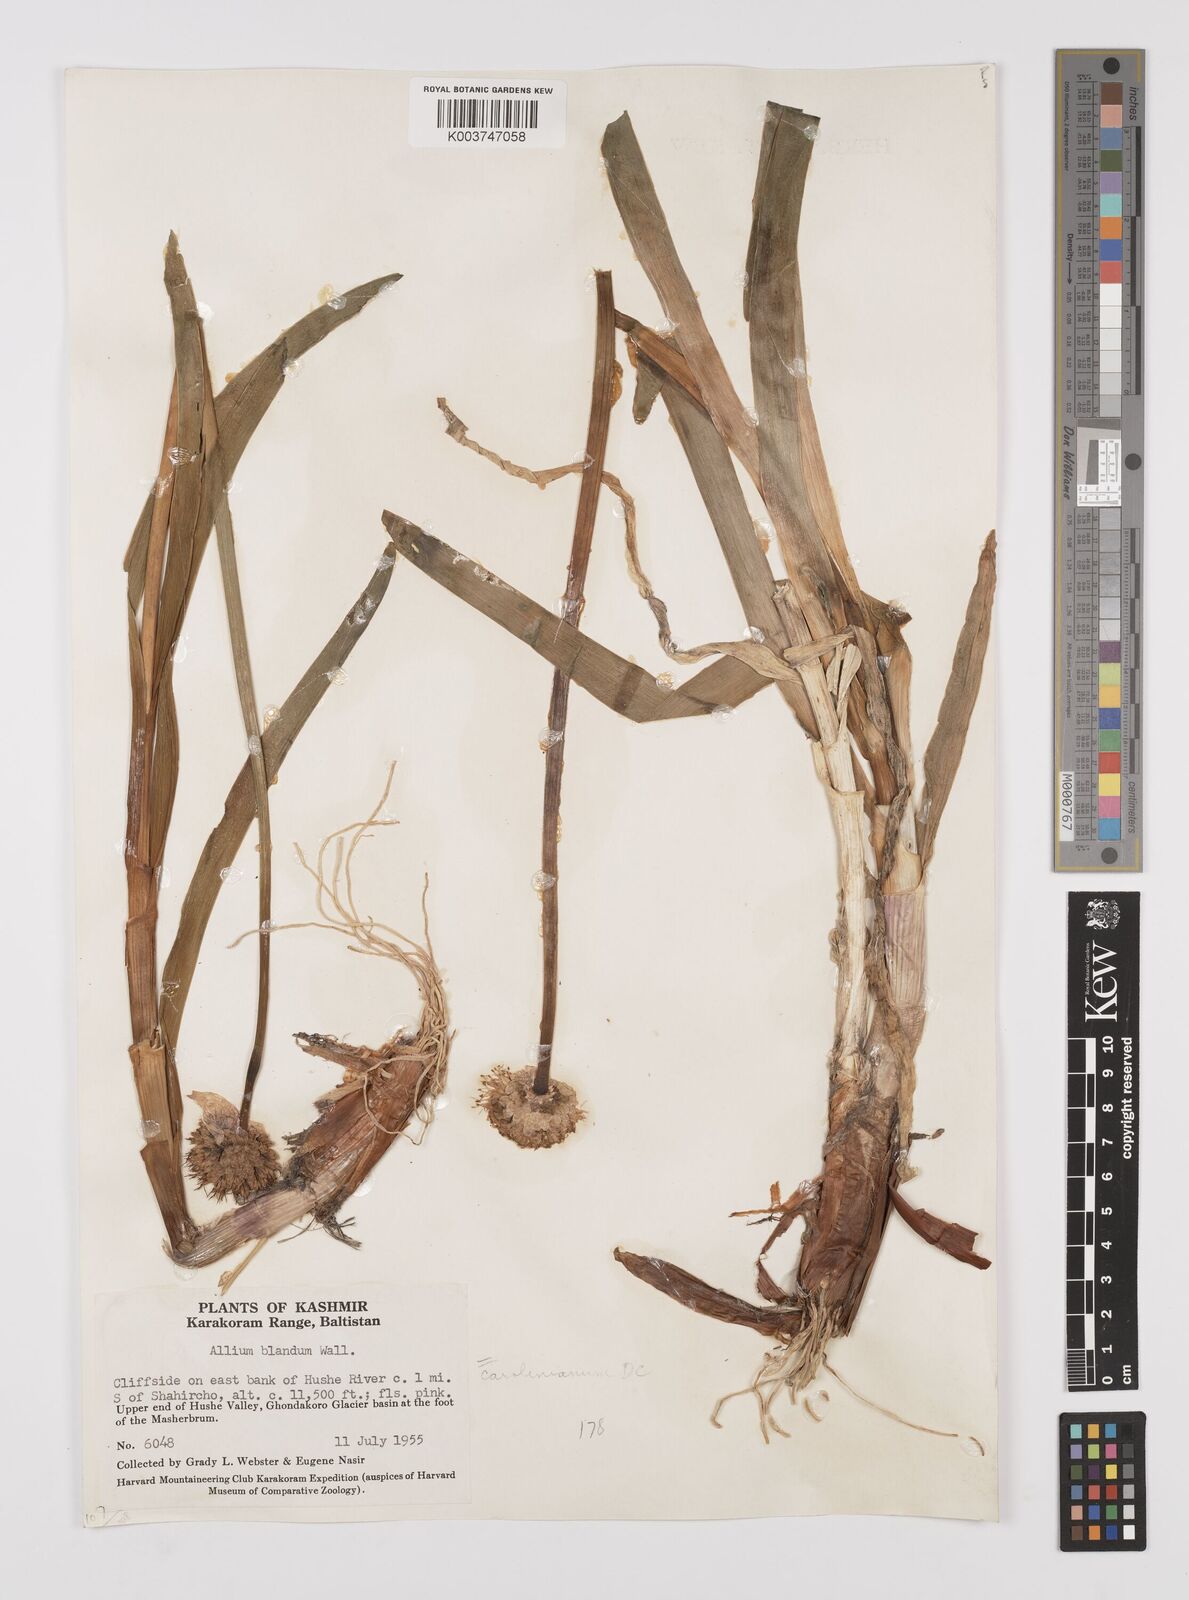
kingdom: Plantae
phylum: Tracheophyta
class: Liliopsida
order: Asparagales
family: Amaryllidaceae
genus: Allium
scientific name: Allium blandum
